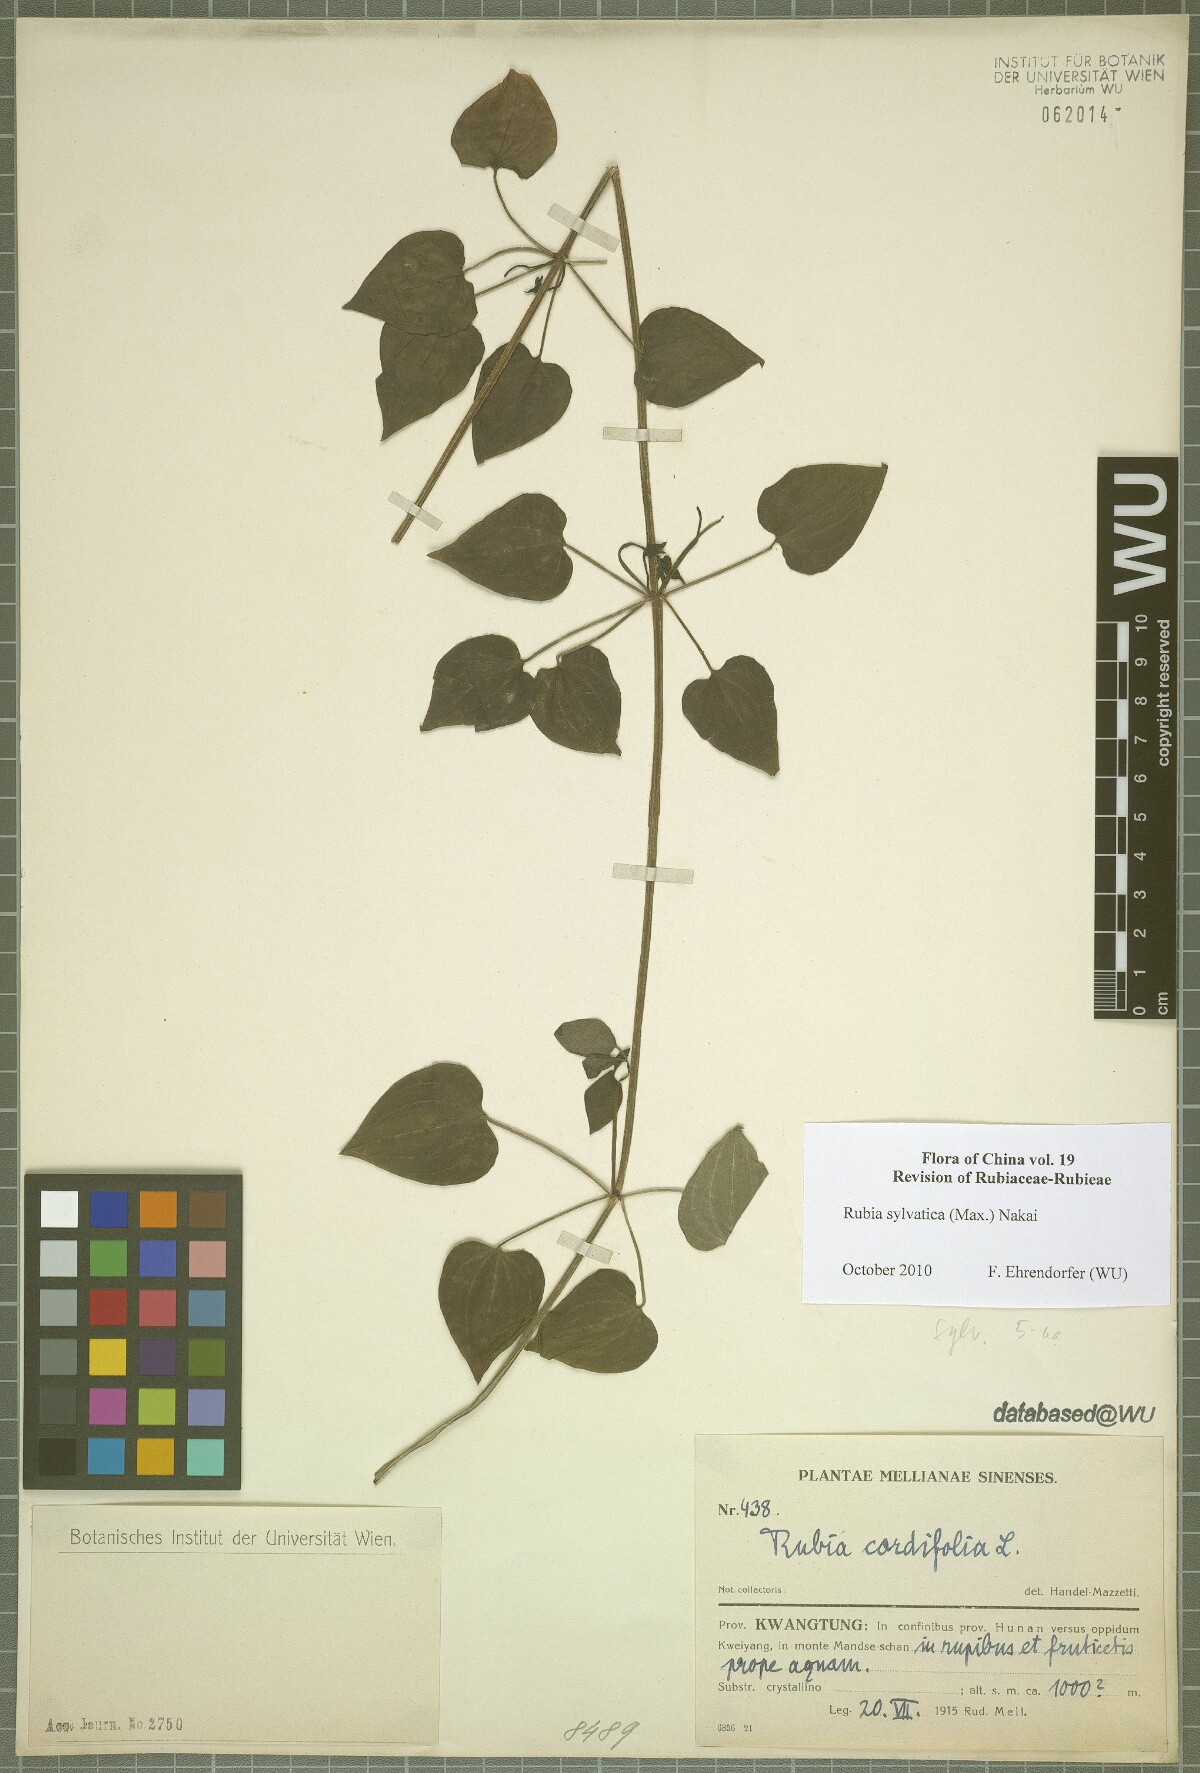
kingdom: Plantae
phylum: Tracheophyta
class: Magnoliopsida
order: Gentianales
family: Rubiaceae
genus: Rubia
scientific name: Rubia sylvatica
